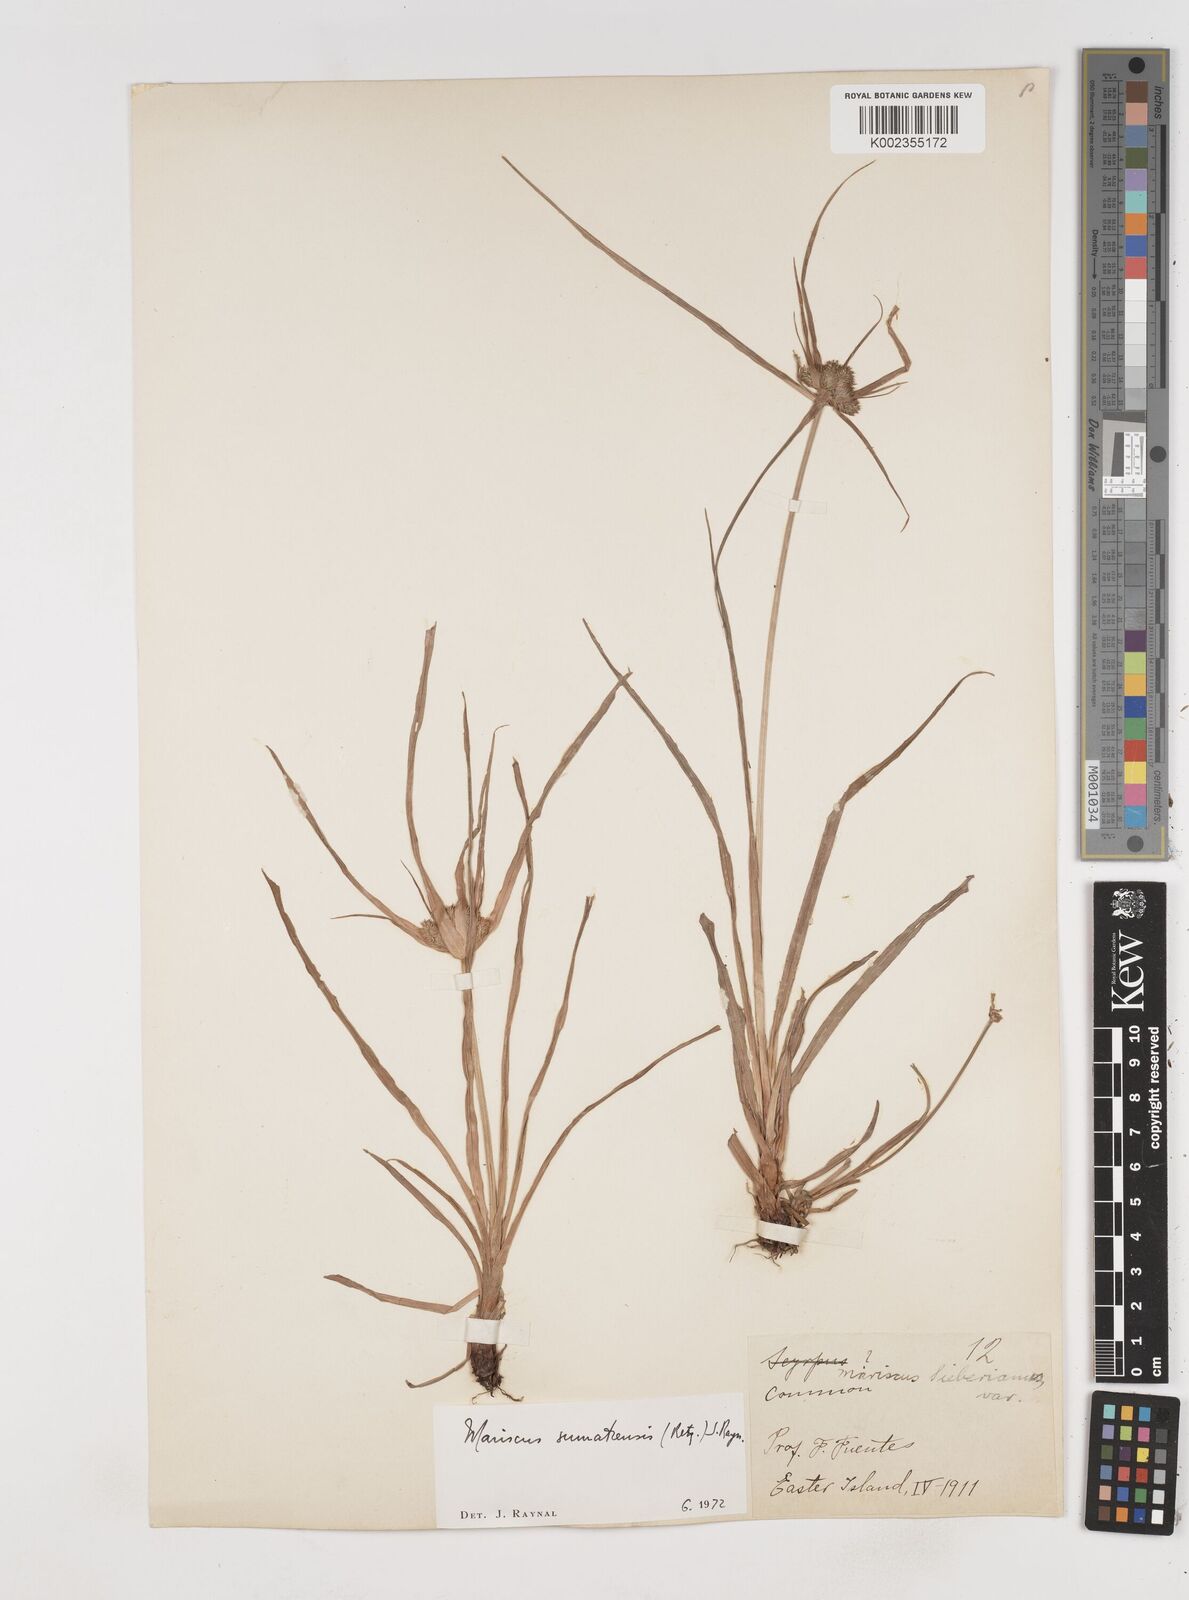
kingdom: Plantae
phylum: Tracheophyta
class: Liliopsida
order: Poales
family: Cyperaceae
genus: Cyperus
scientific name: Cyperus cyperoides
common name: Pacific island flat sedge
